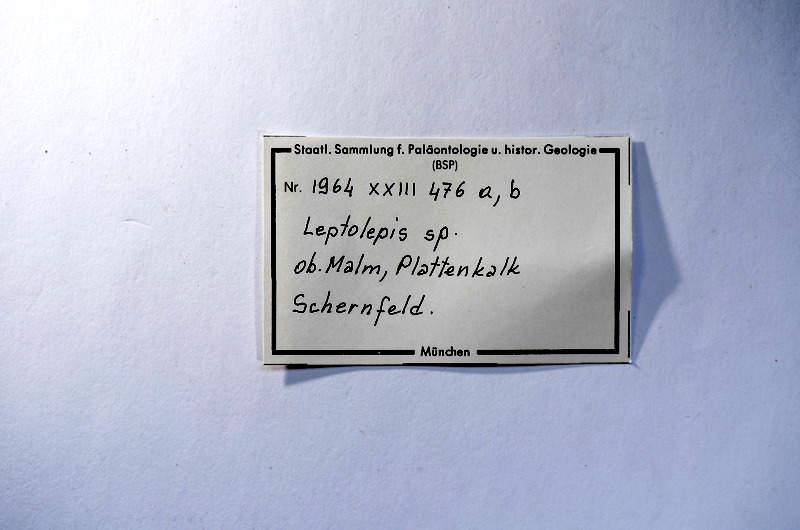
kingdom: Animalia
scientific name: Animalia
